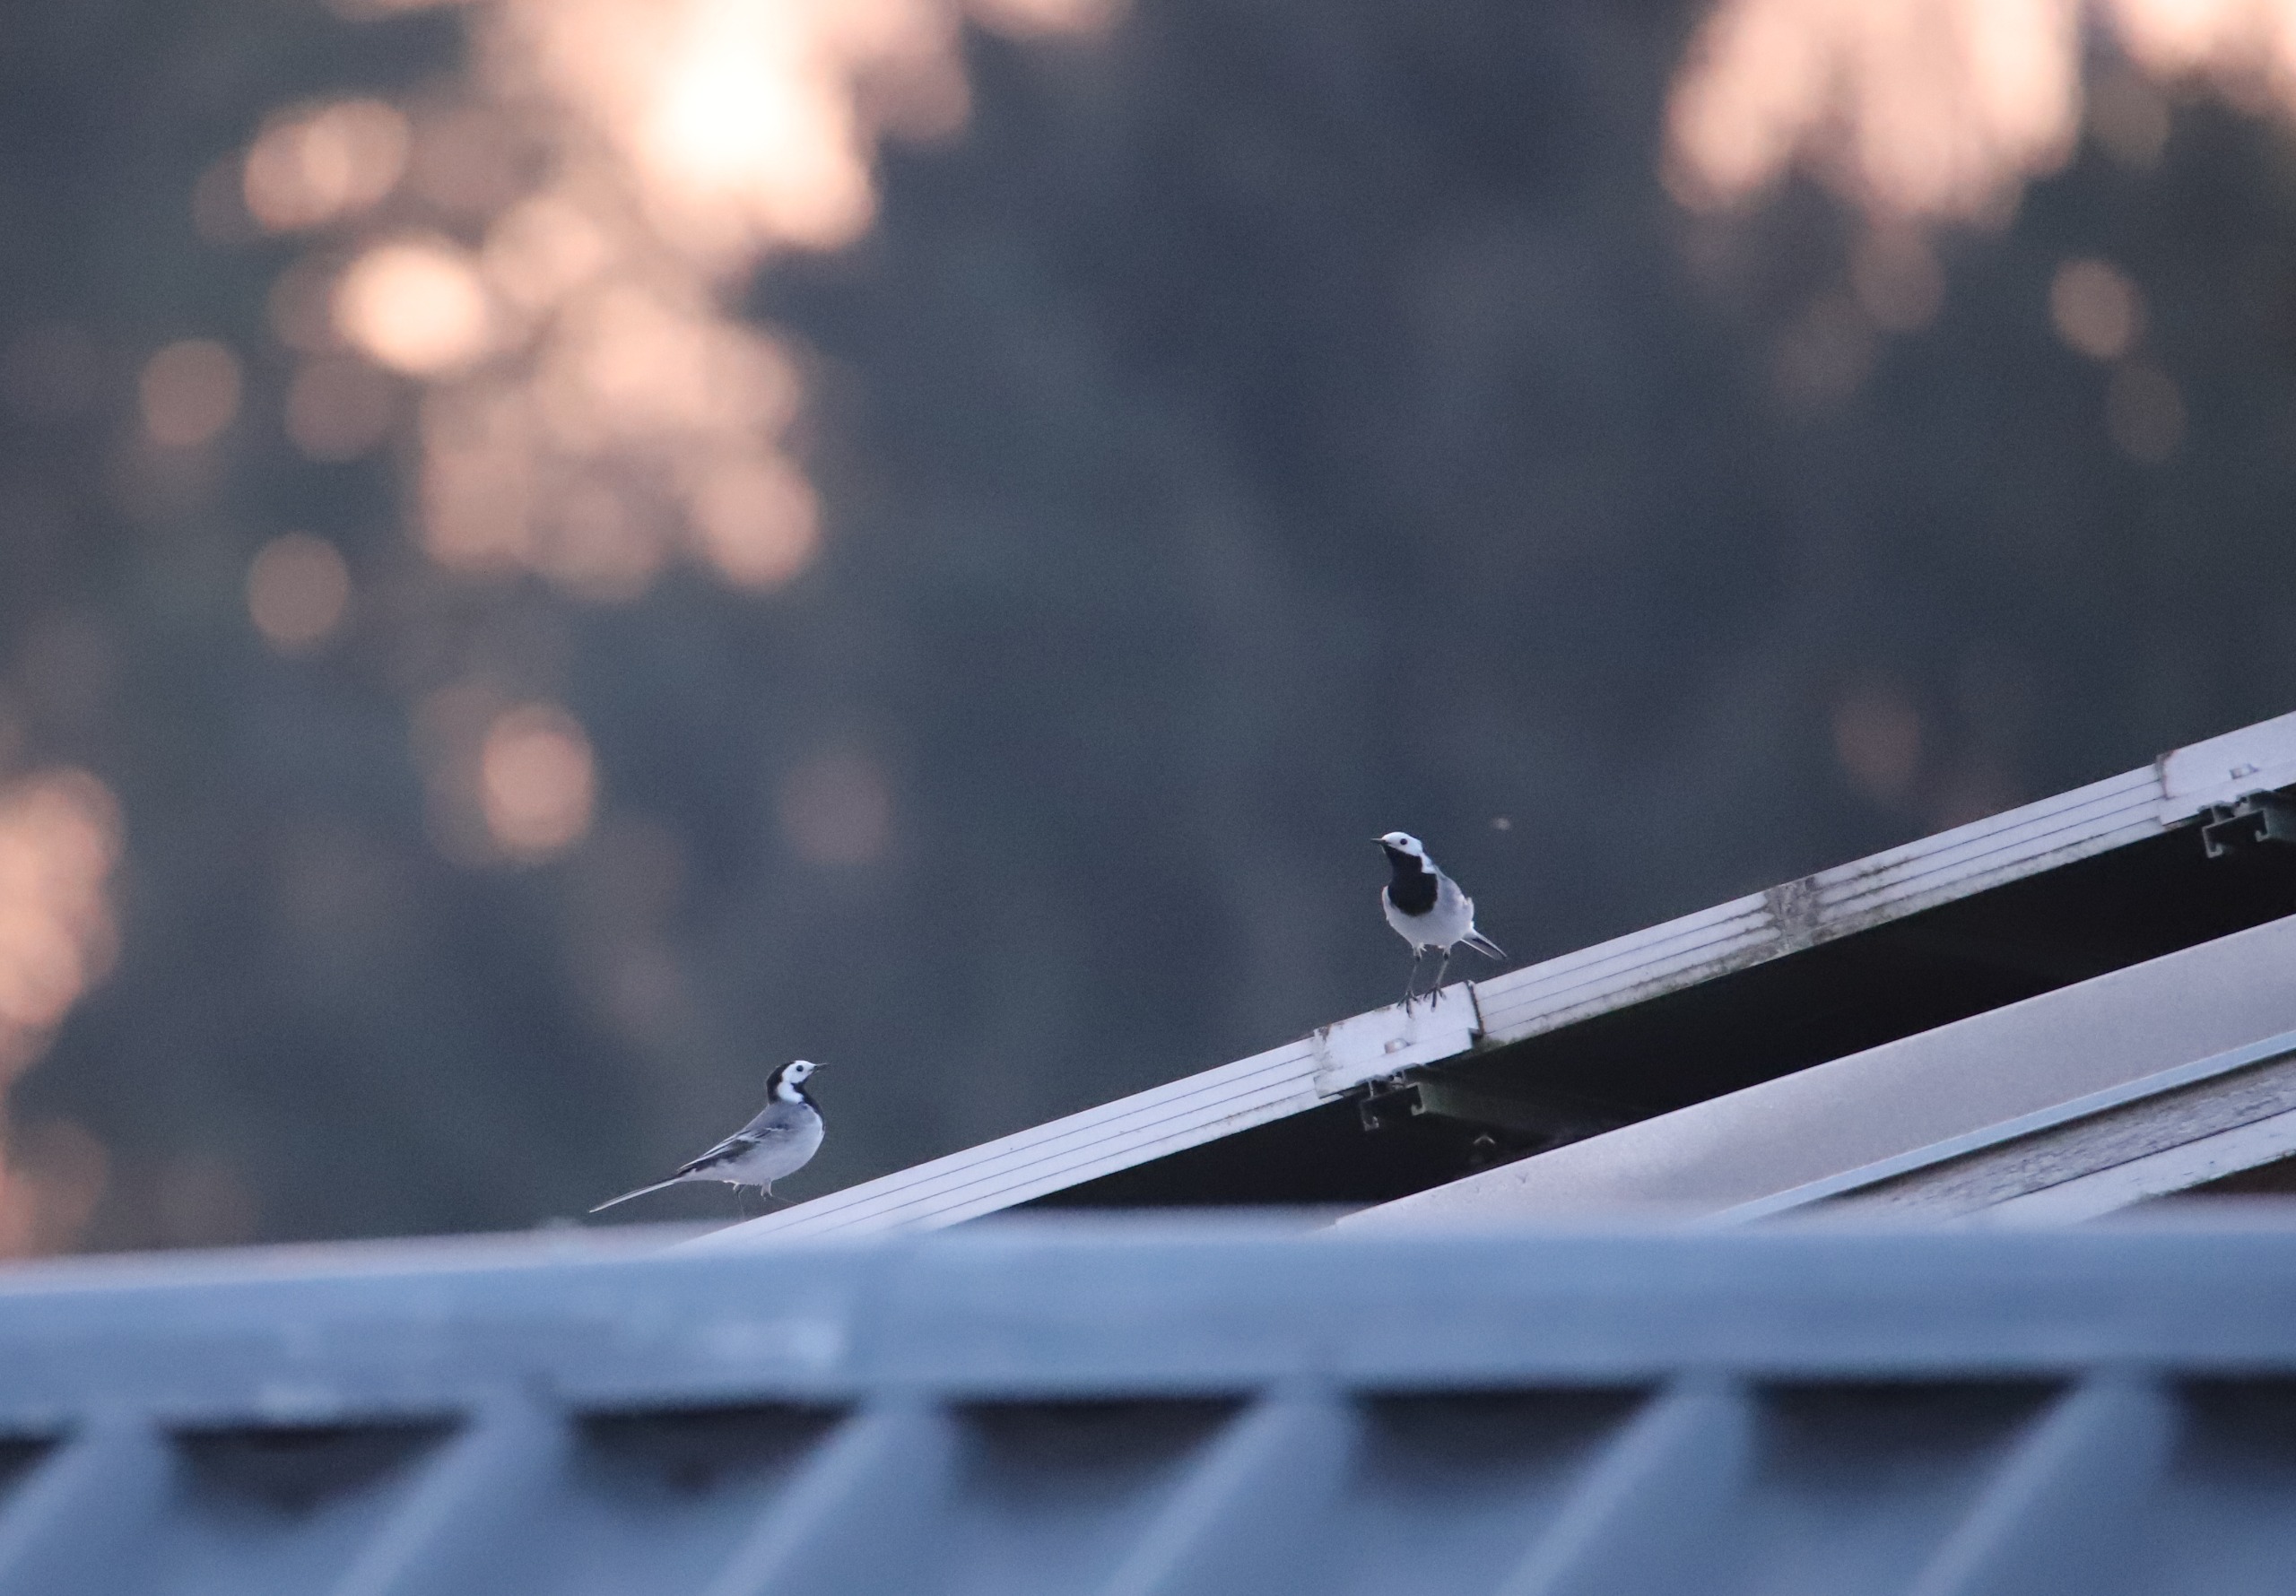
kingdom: Animalia
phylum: Chordata
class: Aves
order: Passeriformes
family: Motacillidae
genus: Motacilla
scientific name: Motacilla alba
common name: Hvid vipstjert
